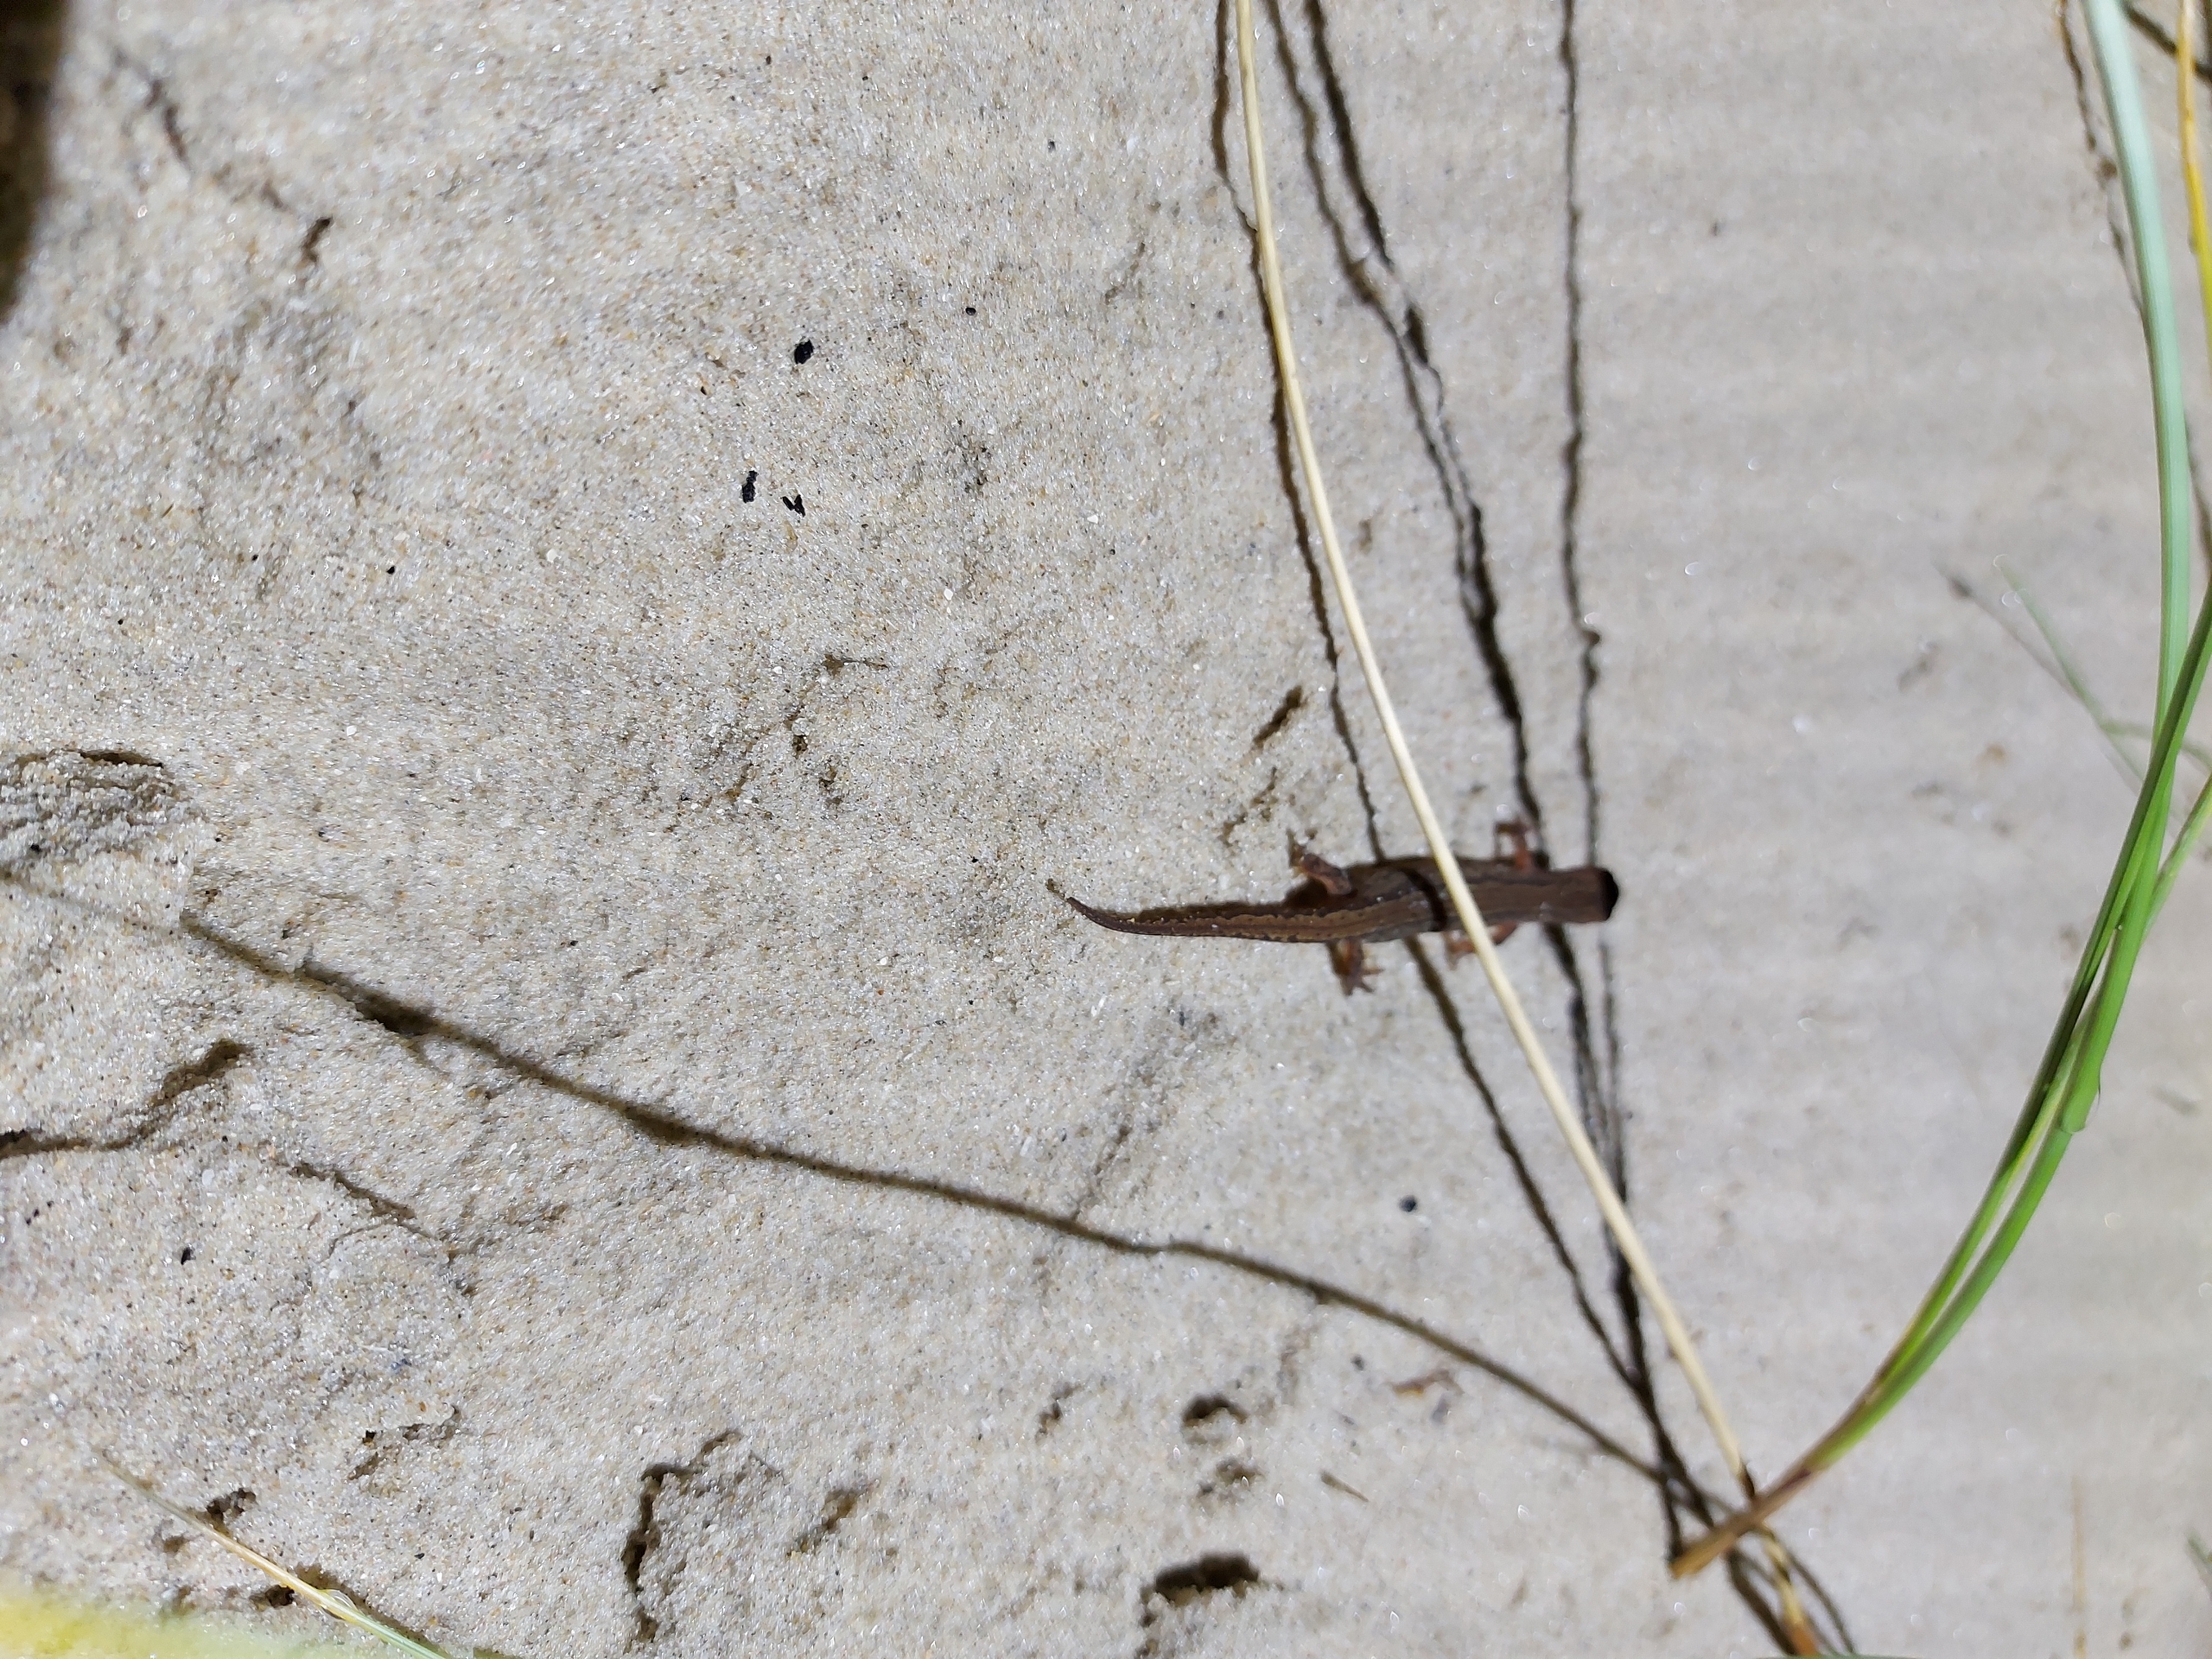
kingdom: Animalia
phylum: Chordata
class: Amphibia
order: Caudata
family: Salamandridae
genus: Lissotriton
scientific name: Lissotriton vulgaris
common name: Lille vandsalamander
